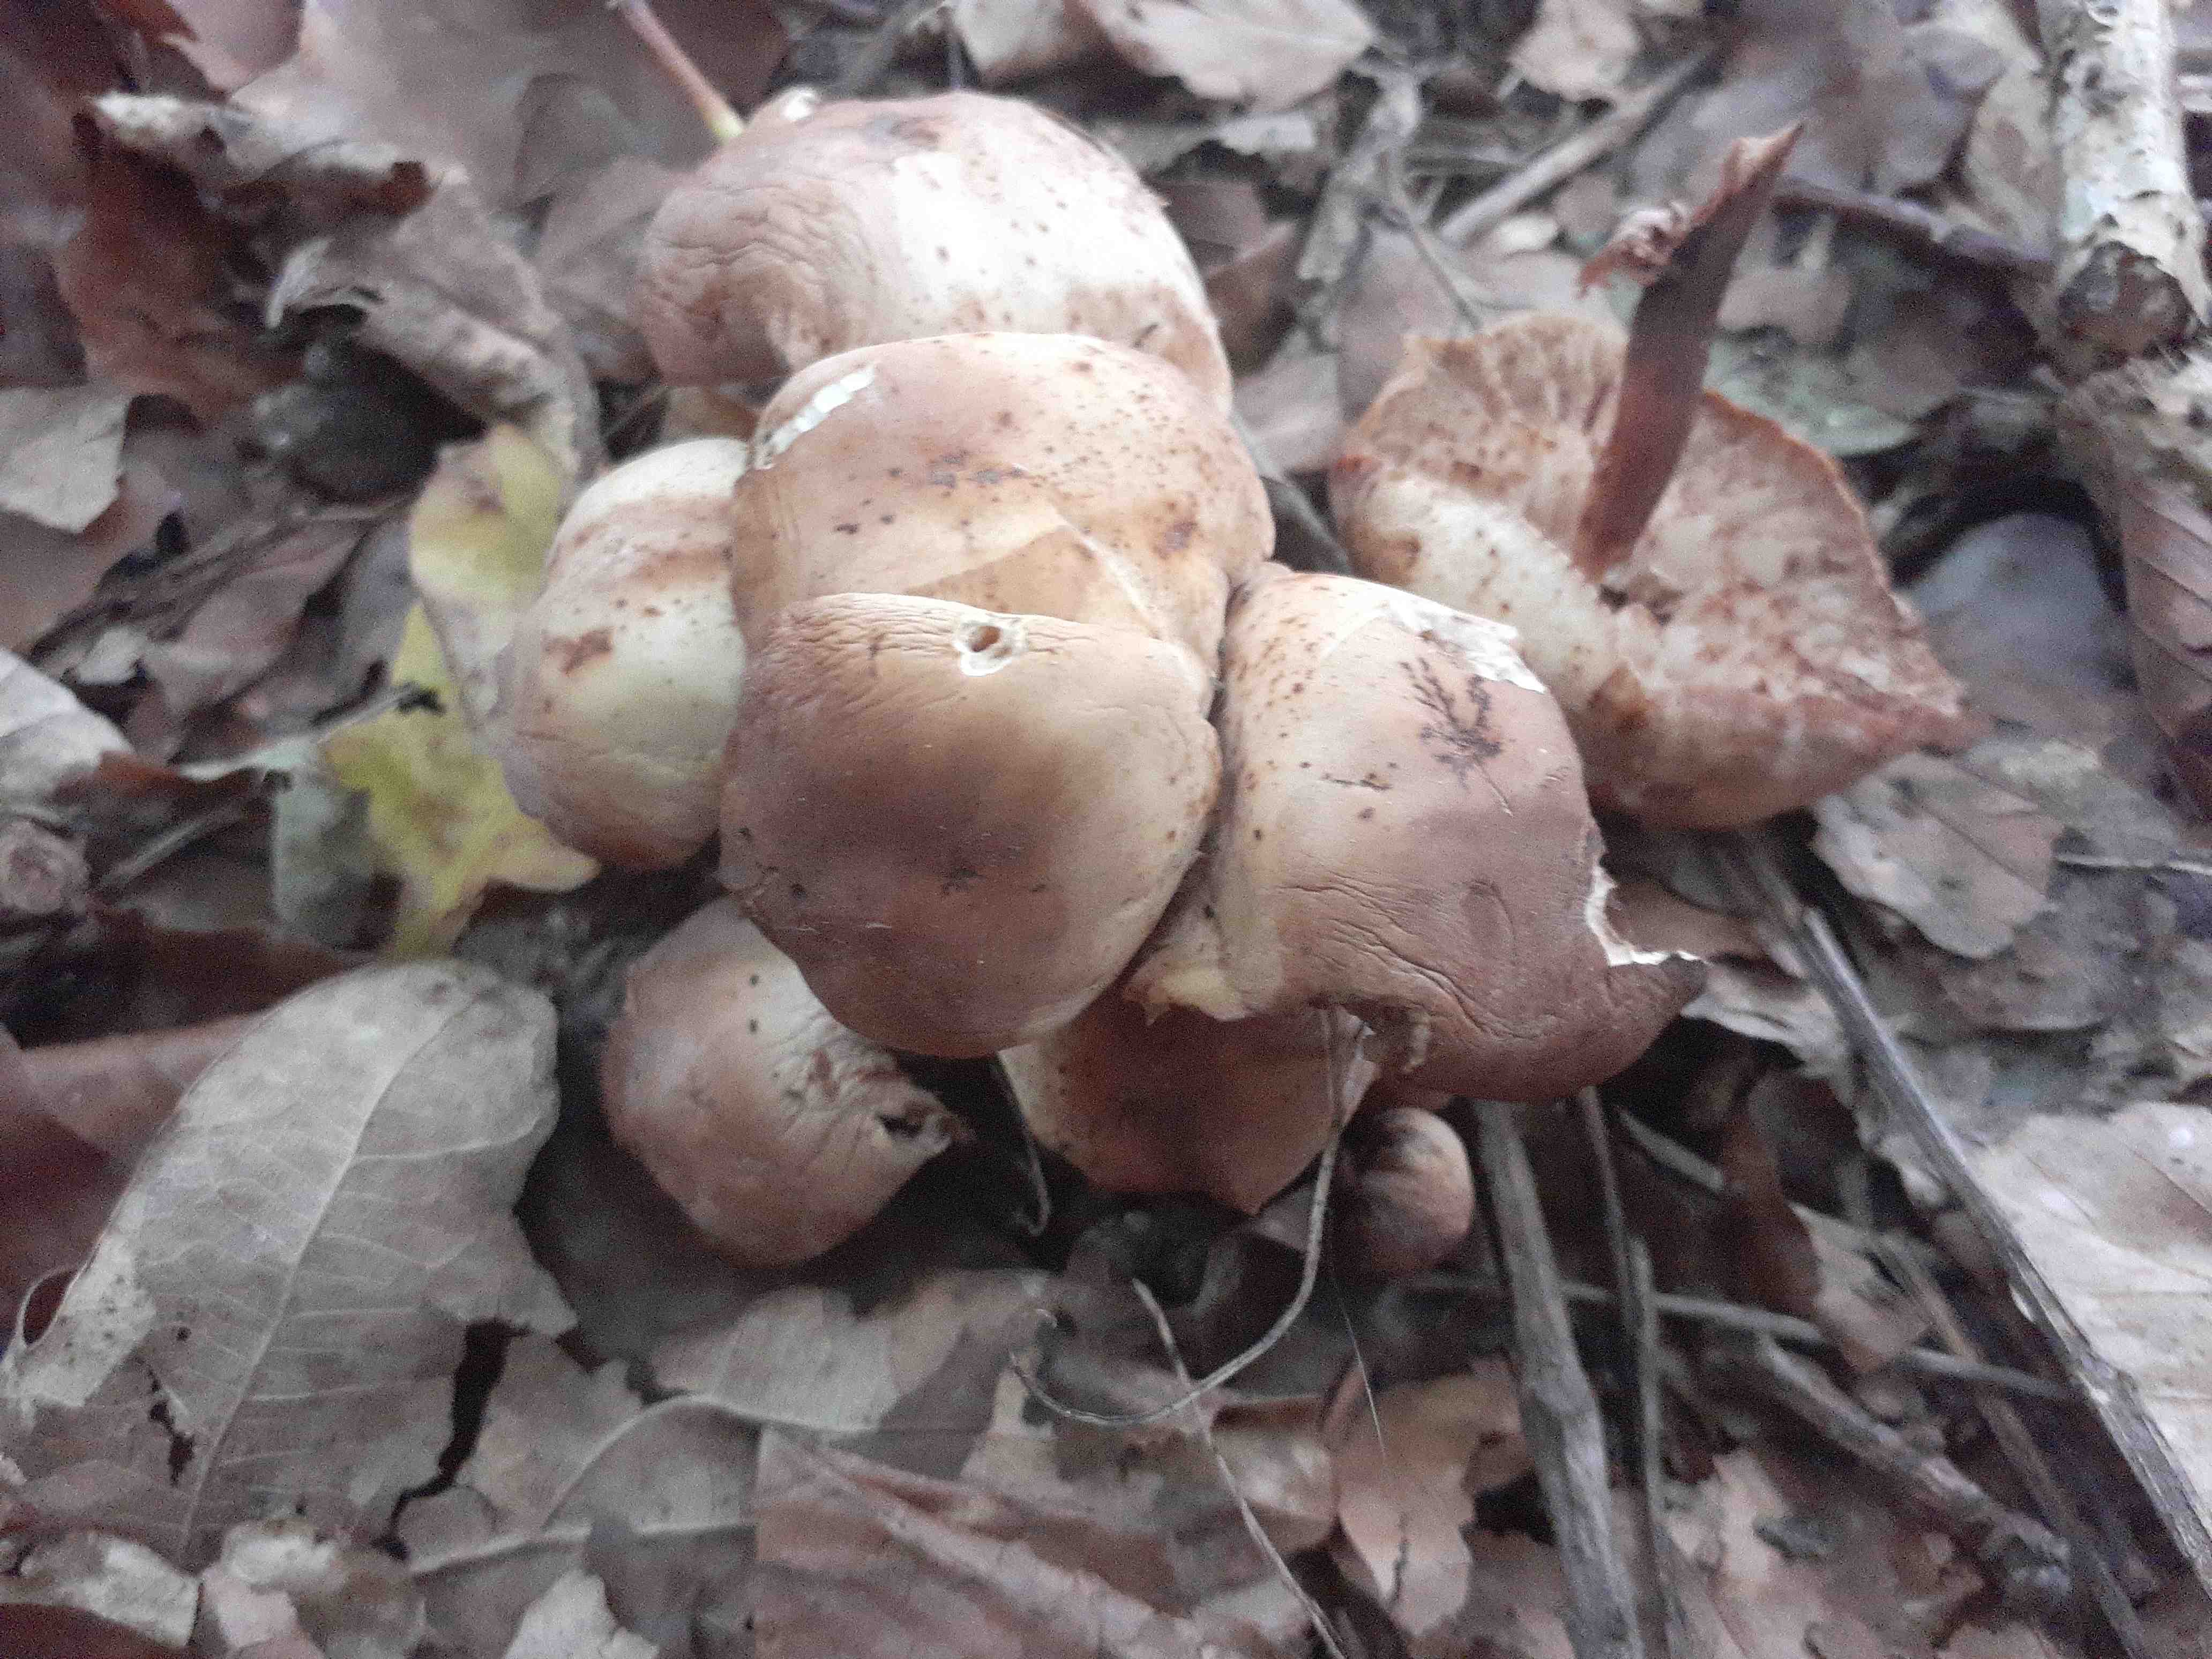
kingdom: Fungi
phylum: Basidiomycota
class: Agaricomycetes
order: Agaricales
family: Omphalotaceae
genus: Gymnopus
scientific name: Gymnopus fusipes
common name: tenstokket fladhat
